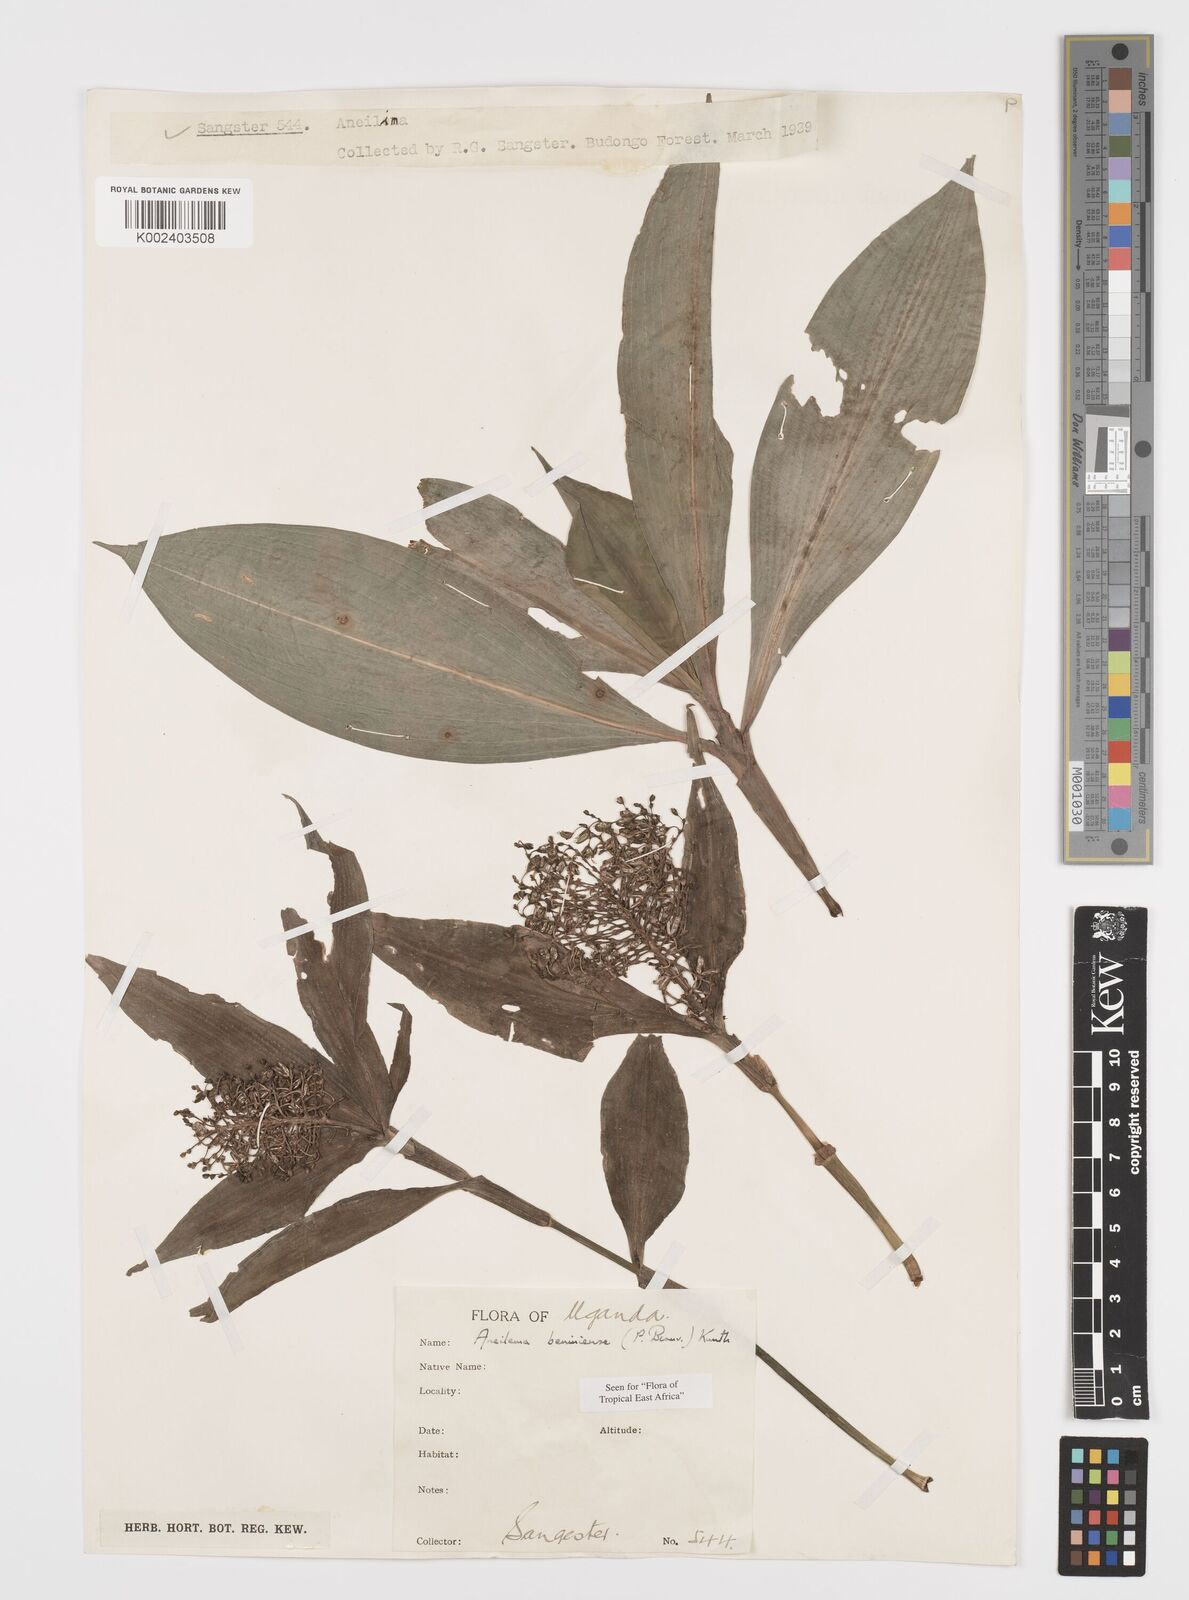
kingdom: Plantae
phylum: Tracheophyta
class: Liliopsida
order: Commelinales
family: Commelinaceae
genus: Aneilema
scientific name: Aneilema beniniense
